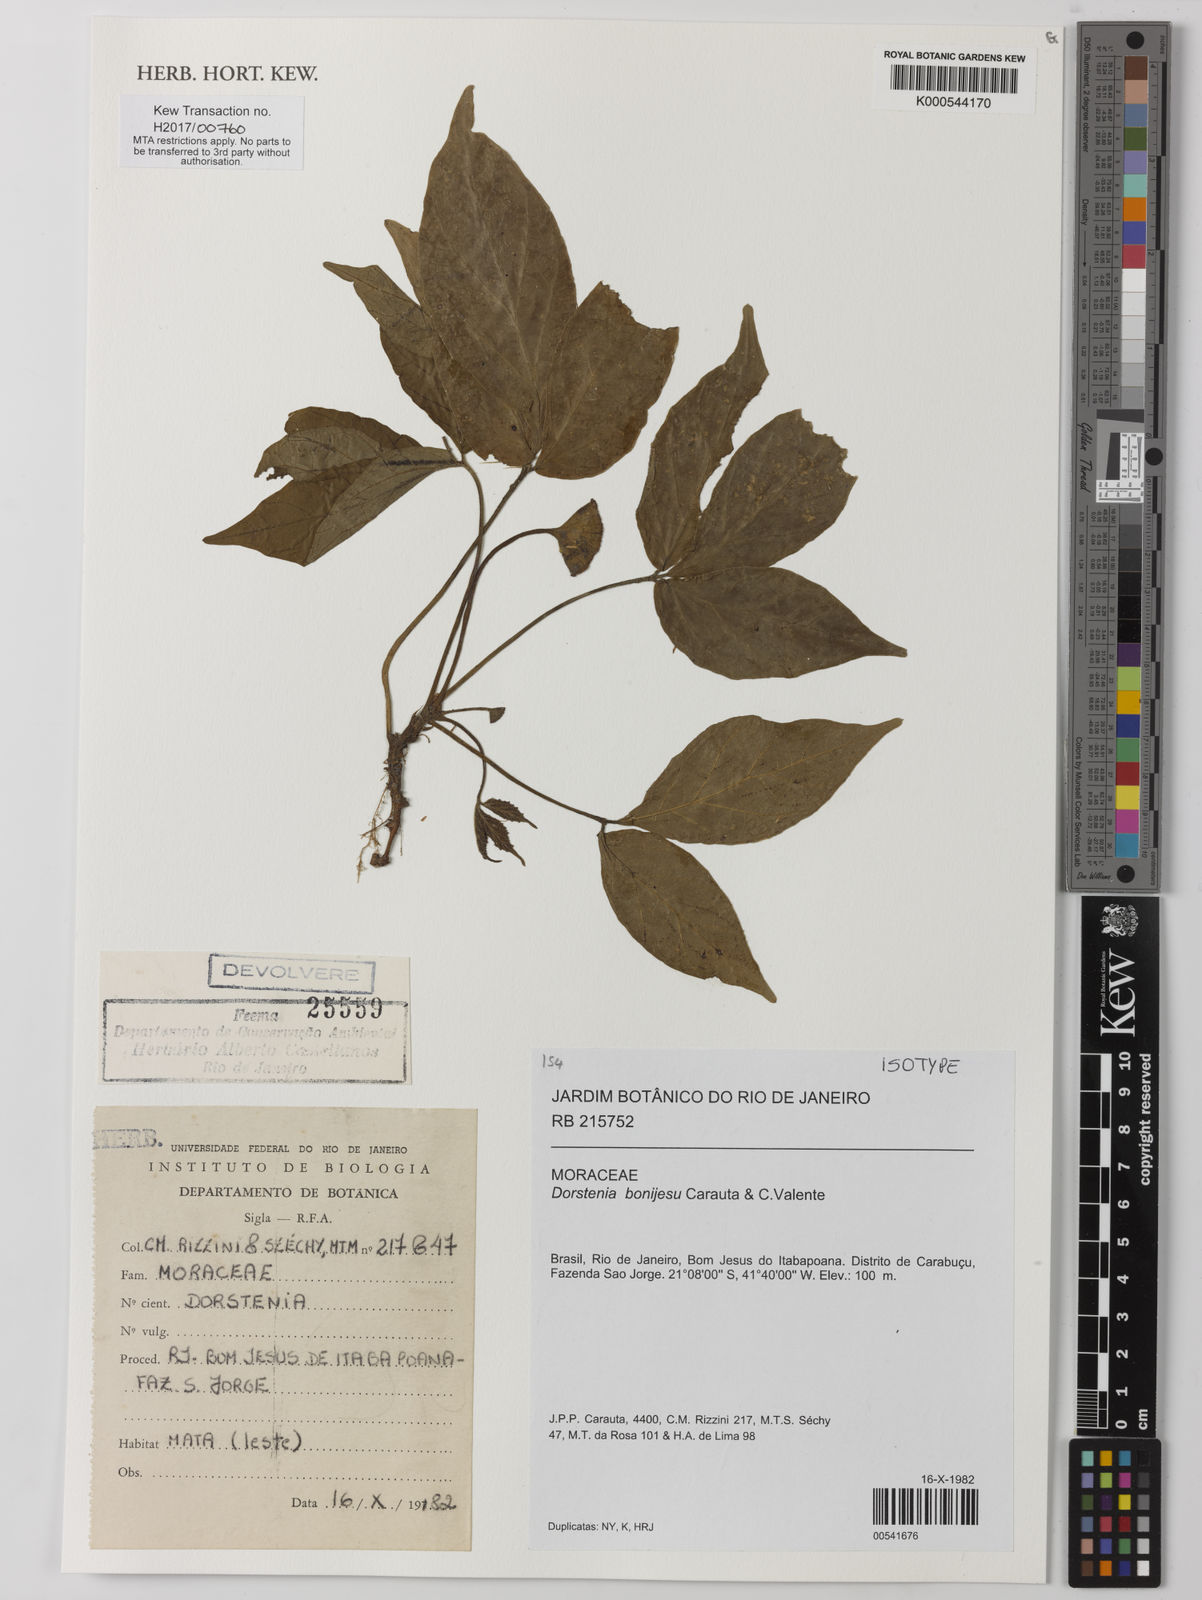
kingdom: Plantae
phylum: Tracheophyta
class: Magnoliopsida
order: Rosales
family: Moraceae
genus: Dorstenia
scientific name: Dorstenia bonijesu
